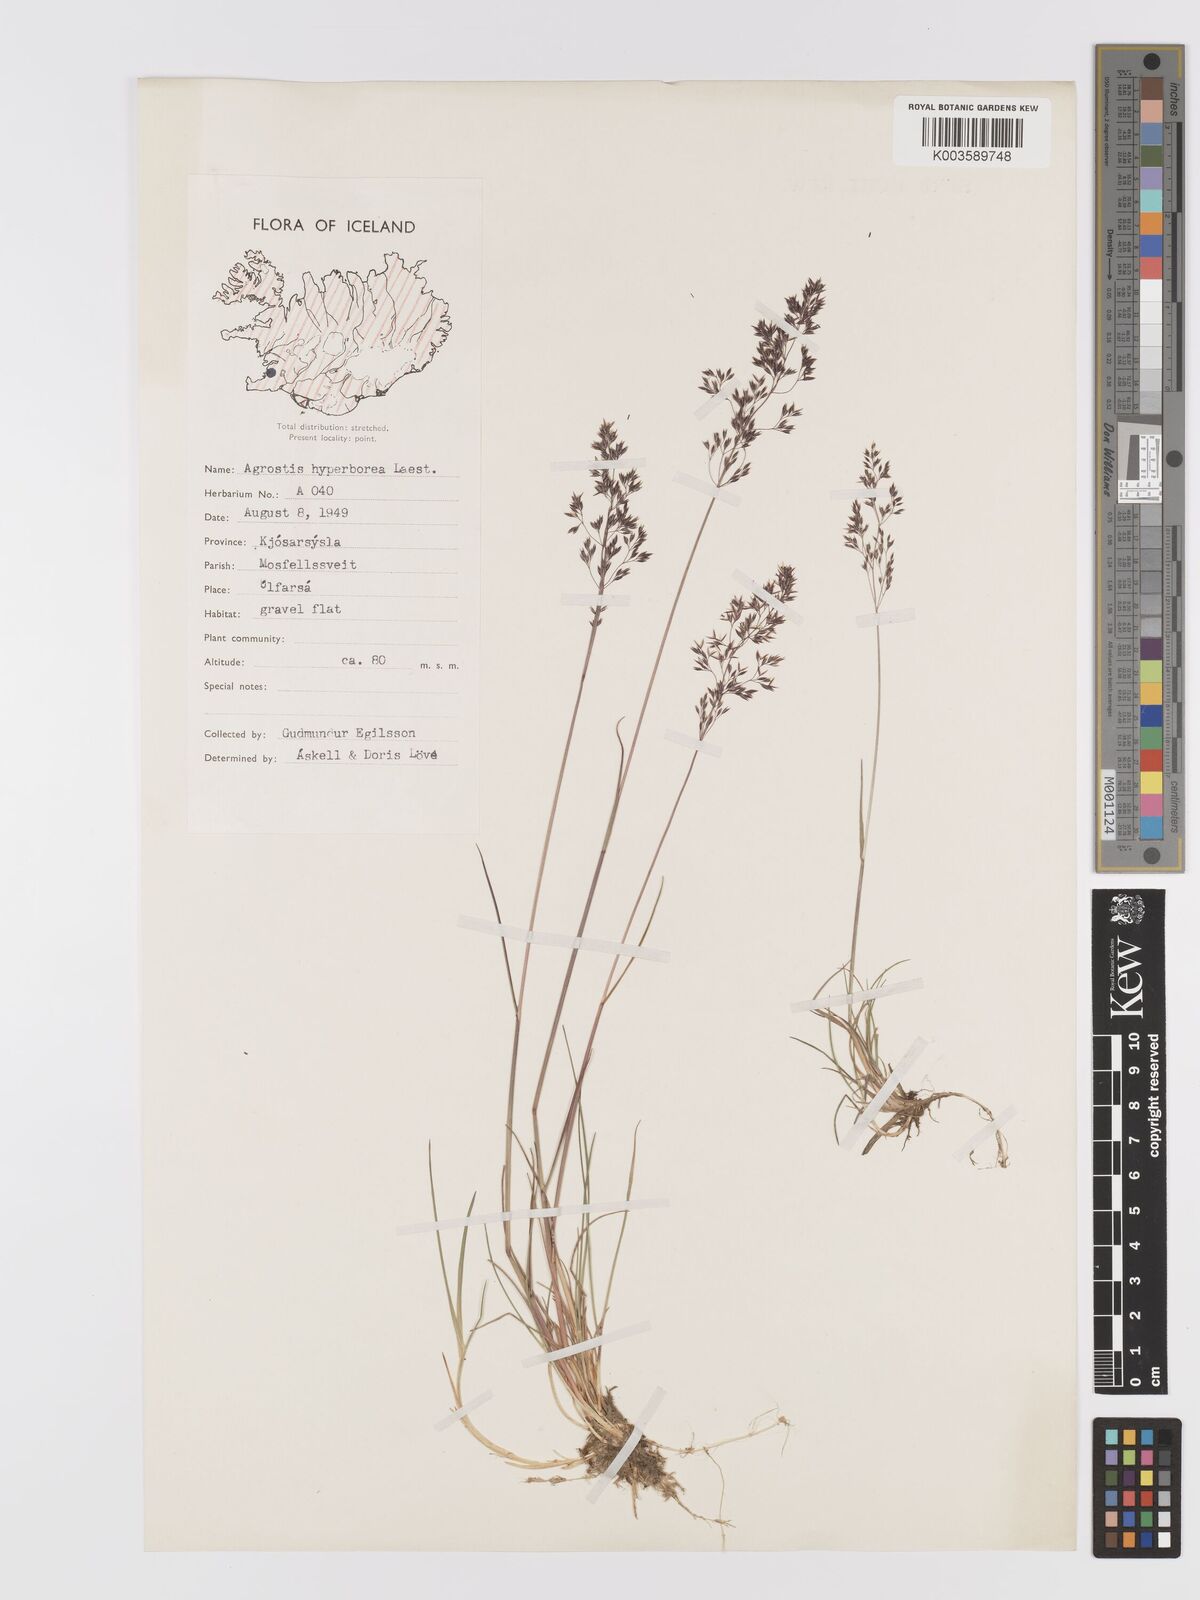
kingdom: Plantae
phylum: Tracheophyta
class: Liliopsida
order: Poales
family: Poaceae
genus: Agrostis
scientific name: Agrostis
